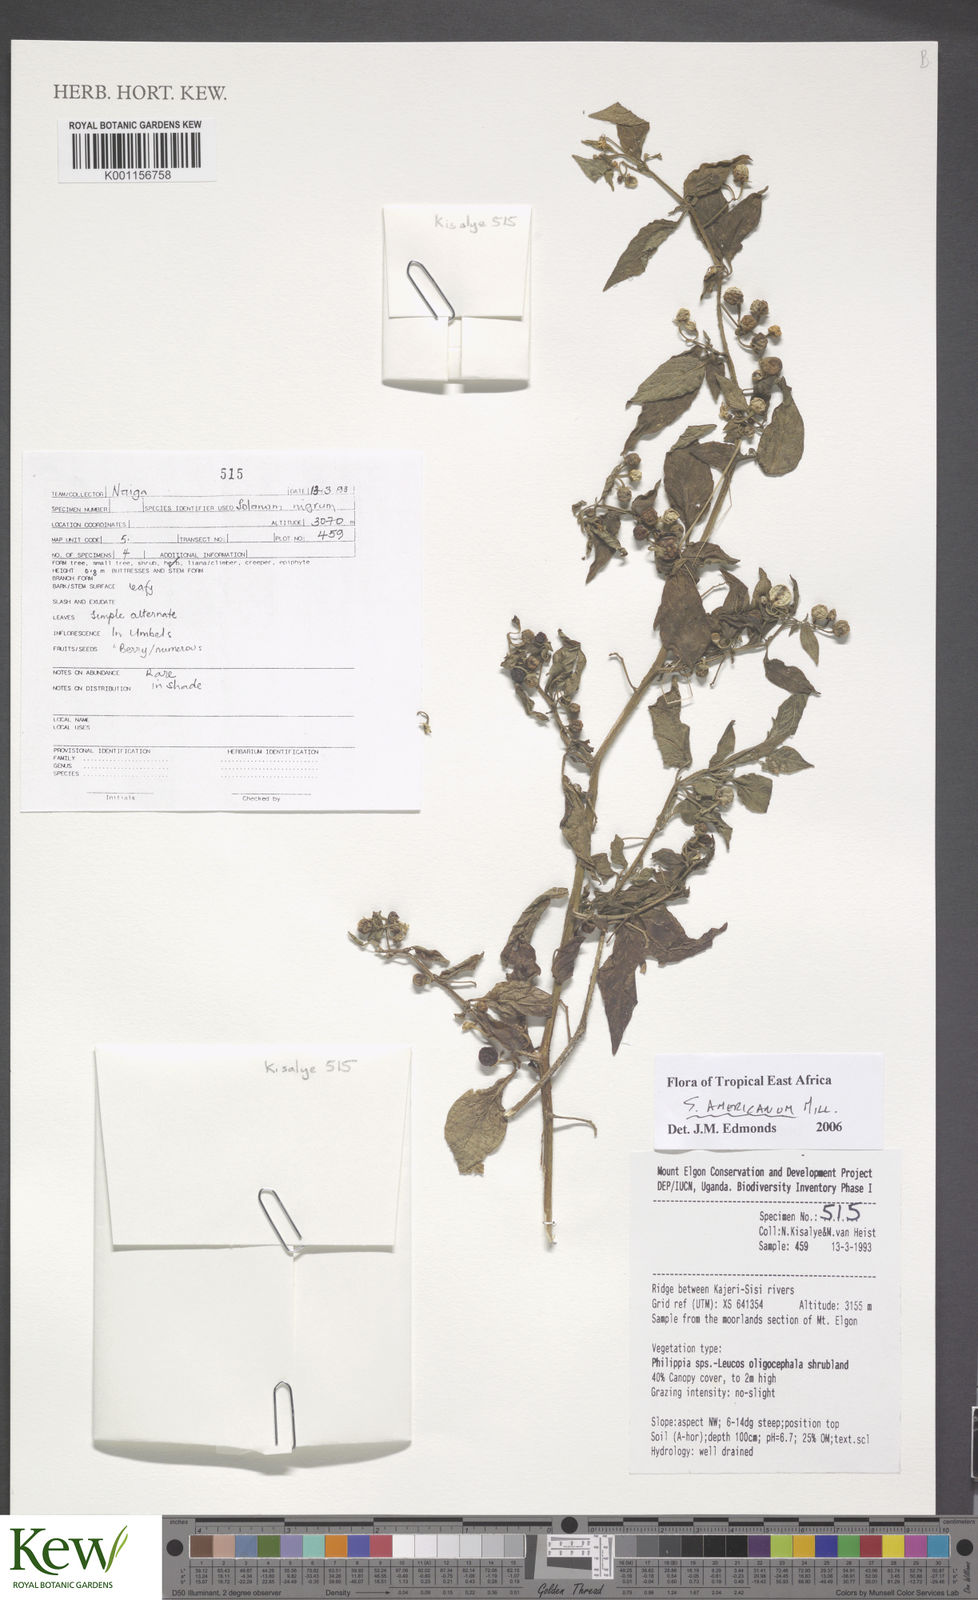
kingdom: Plantae
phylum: Tracheophyta
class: Magnoliopsida
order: Solanales
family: Solanaceae
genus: Solanum
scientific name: Solanum americanum
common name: American black nightshade
